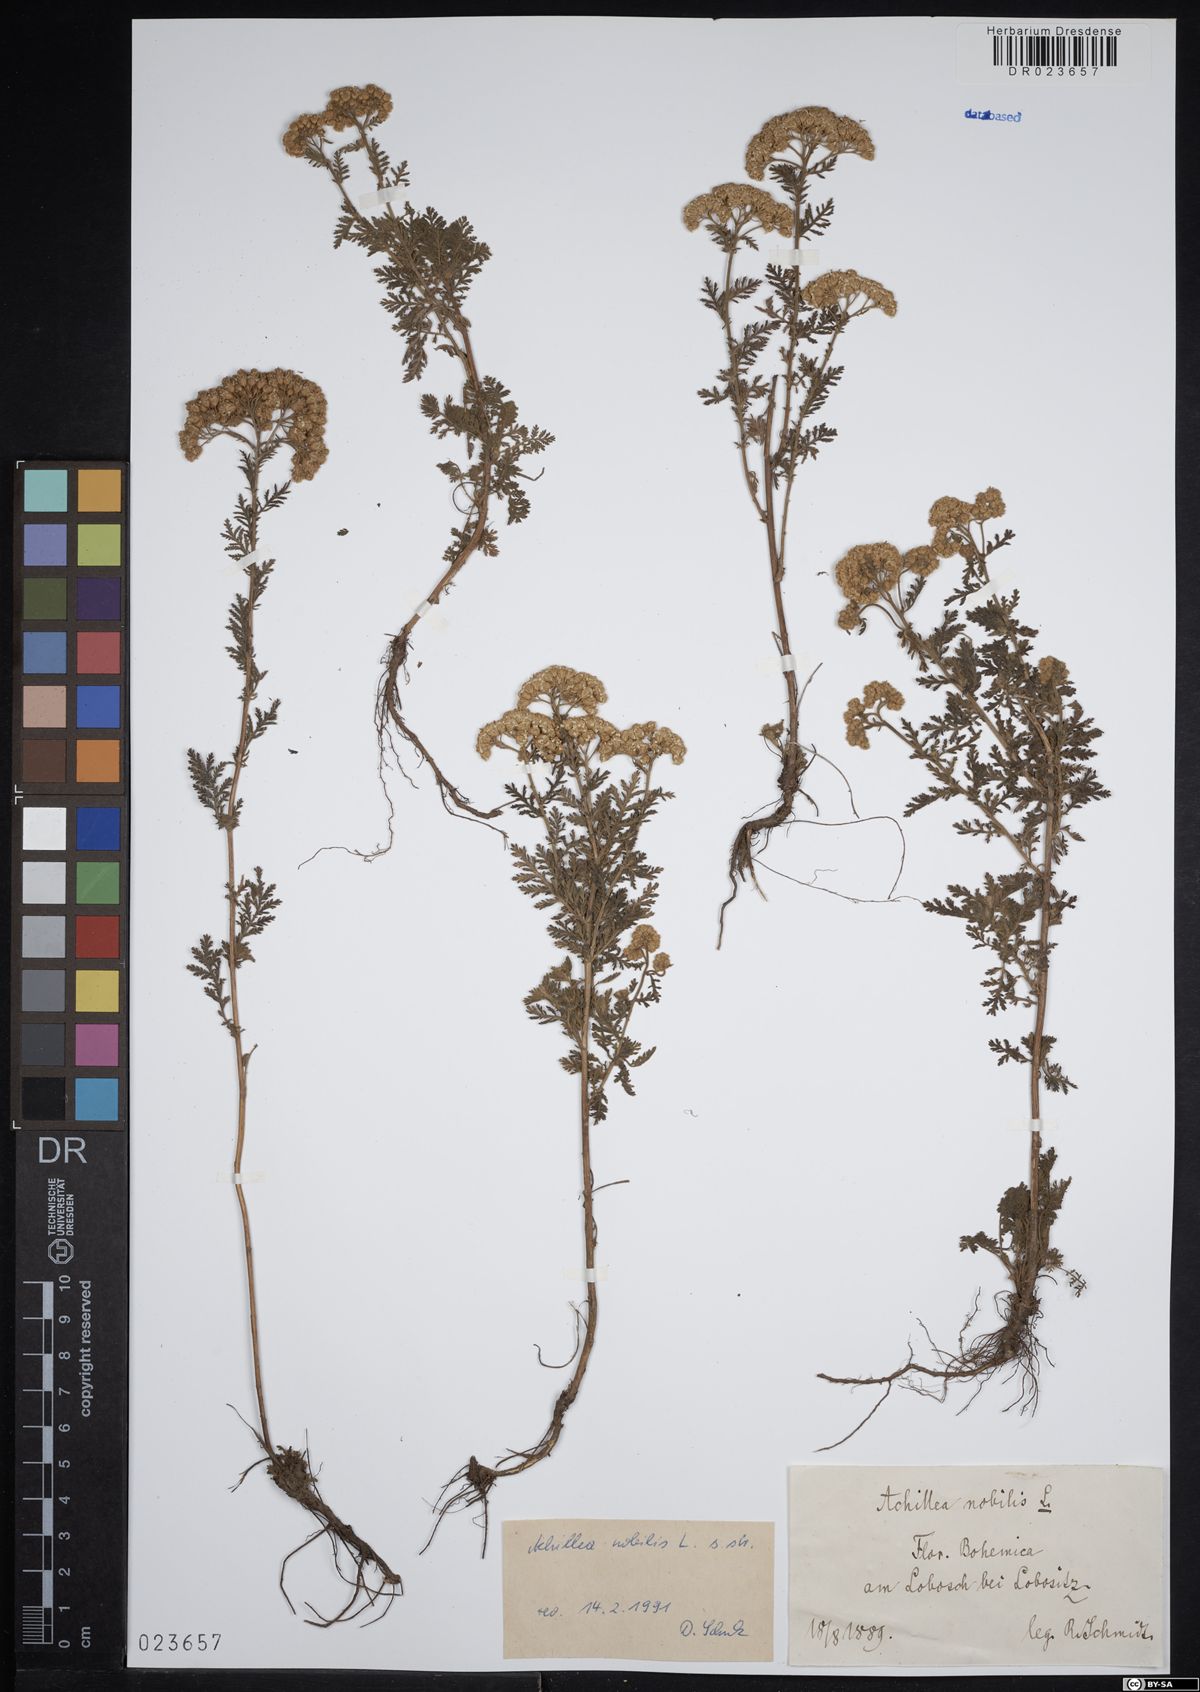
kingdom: Plantae
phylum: Tracheophyta
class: Magnoliopsida
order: Asterales
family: Asteraceae
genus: Achillea
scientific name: Achillea nobilis
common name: Noble yarrow
